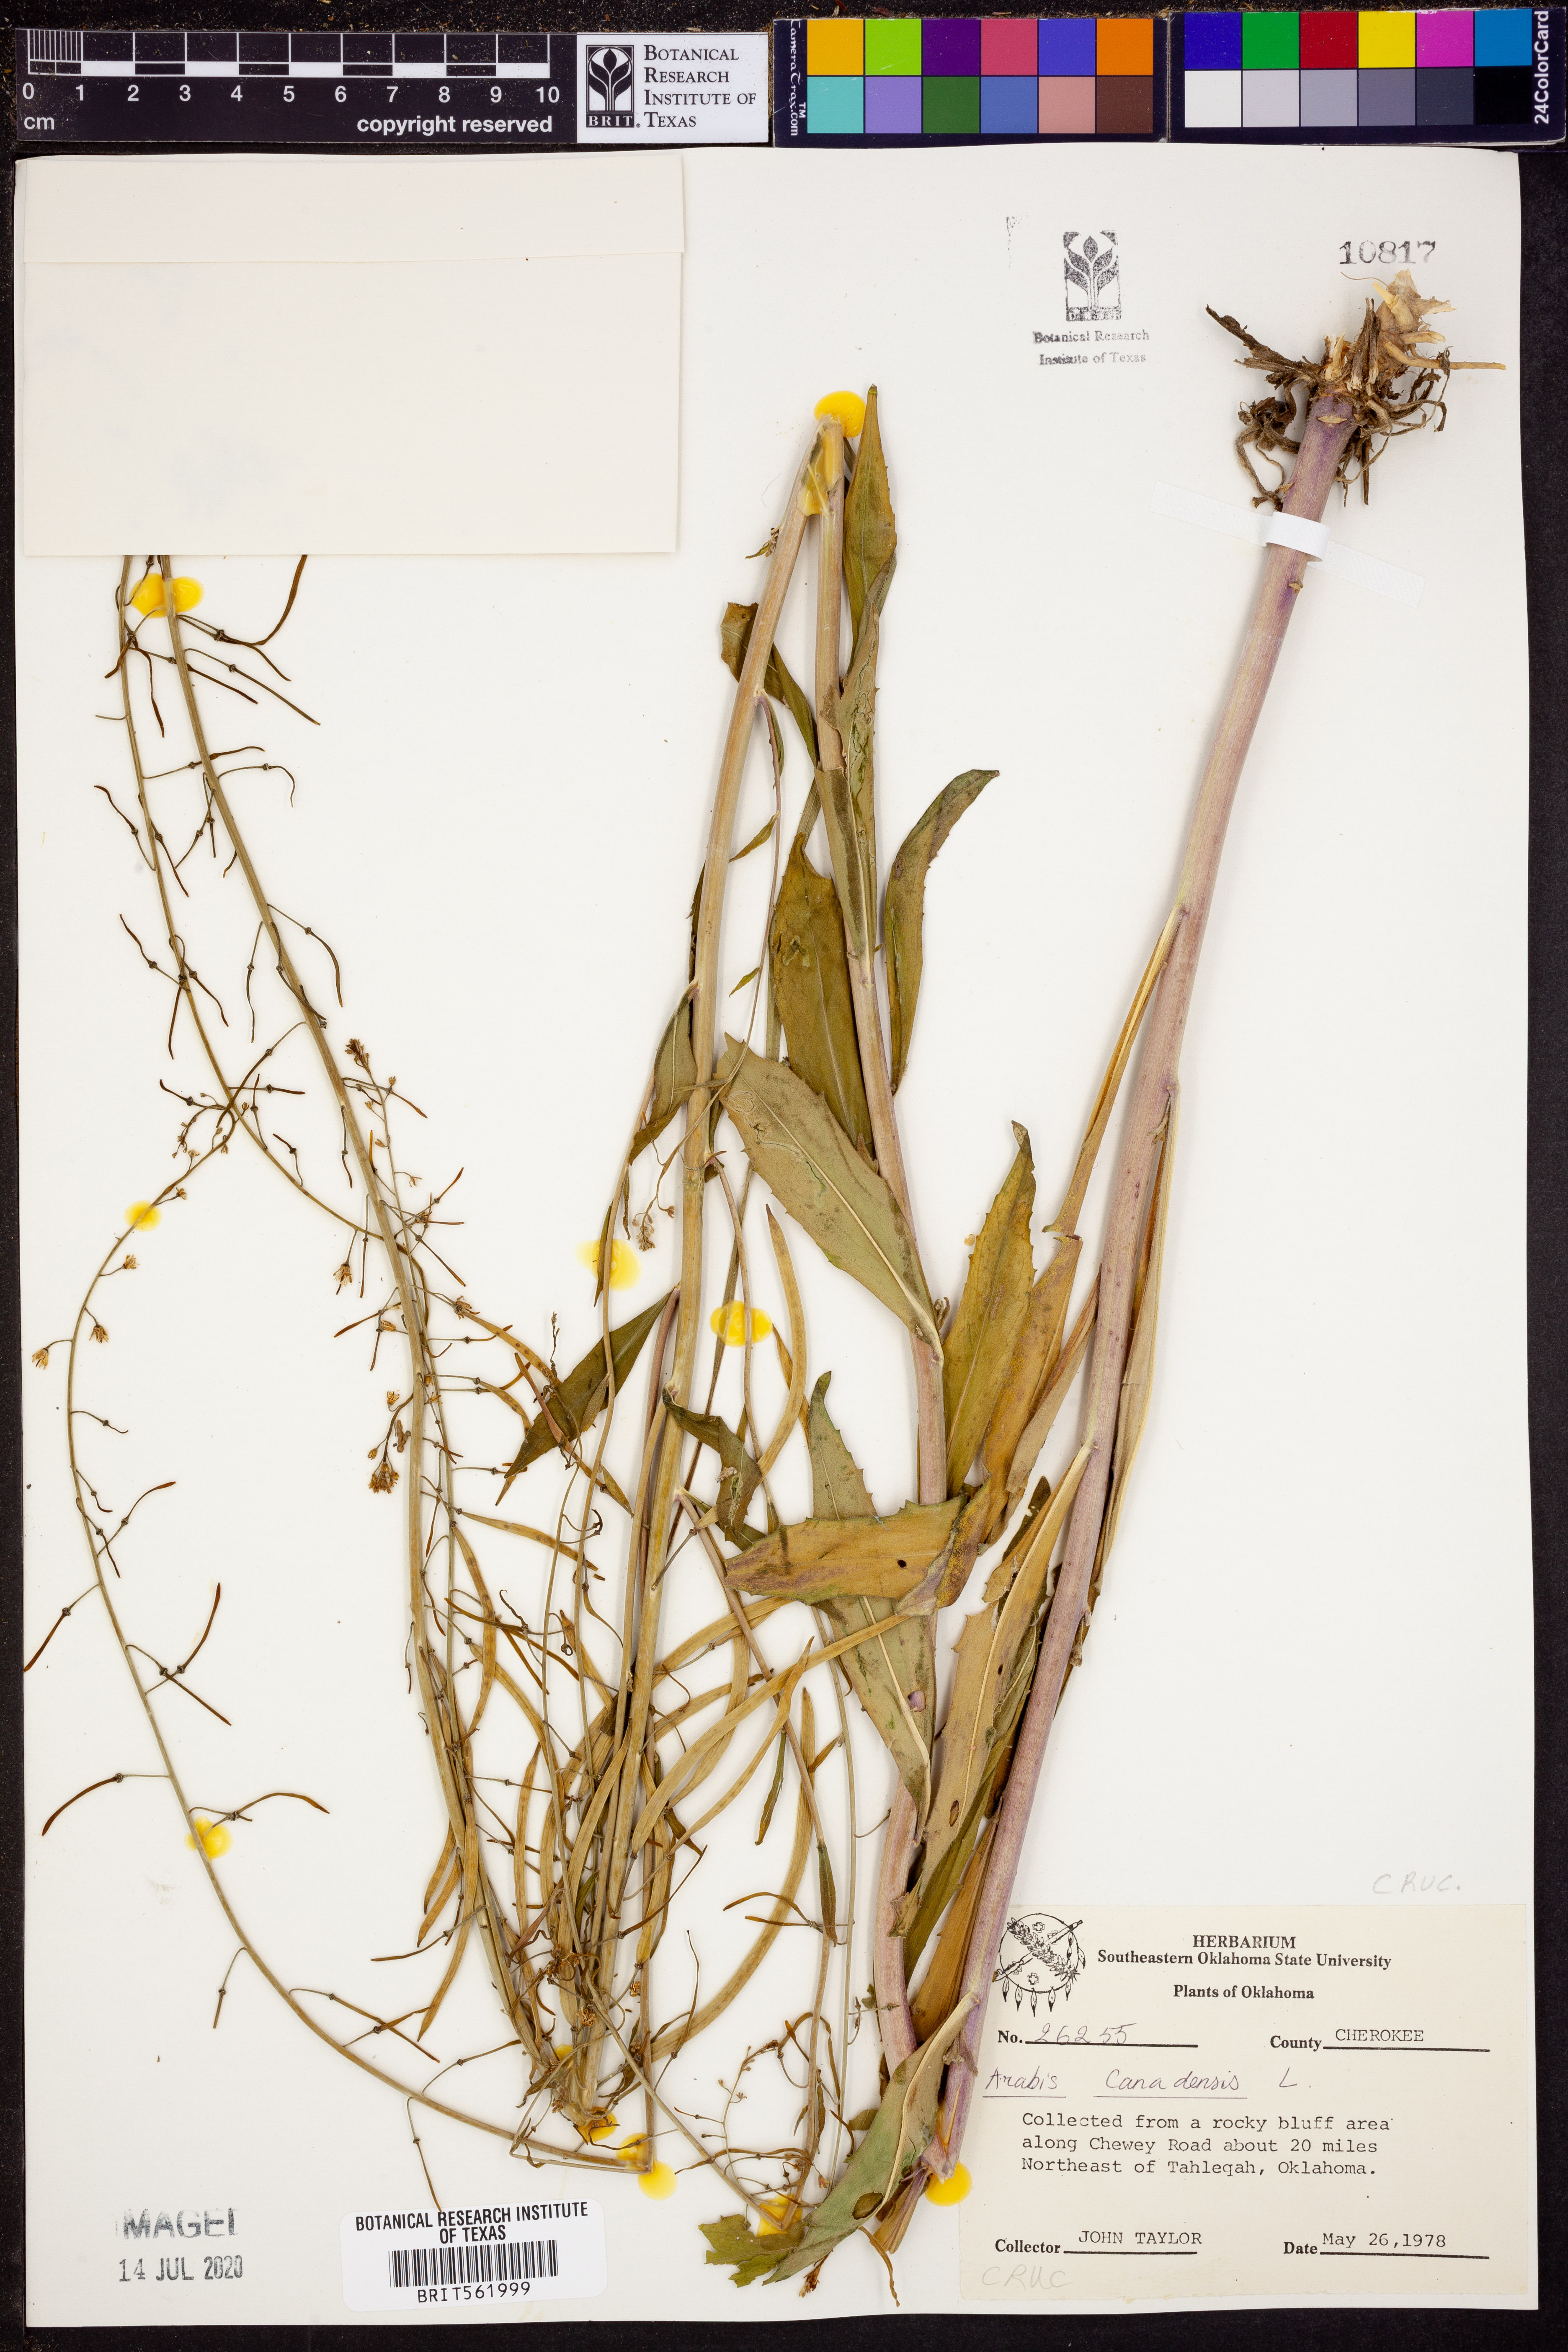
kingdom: Plantae
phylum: Tracheophyta
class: Magnoliopsida
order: Brassicales
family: Brassicaceae
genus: Borodinia
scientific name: Borodinia canadensis
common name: Sicklepod
